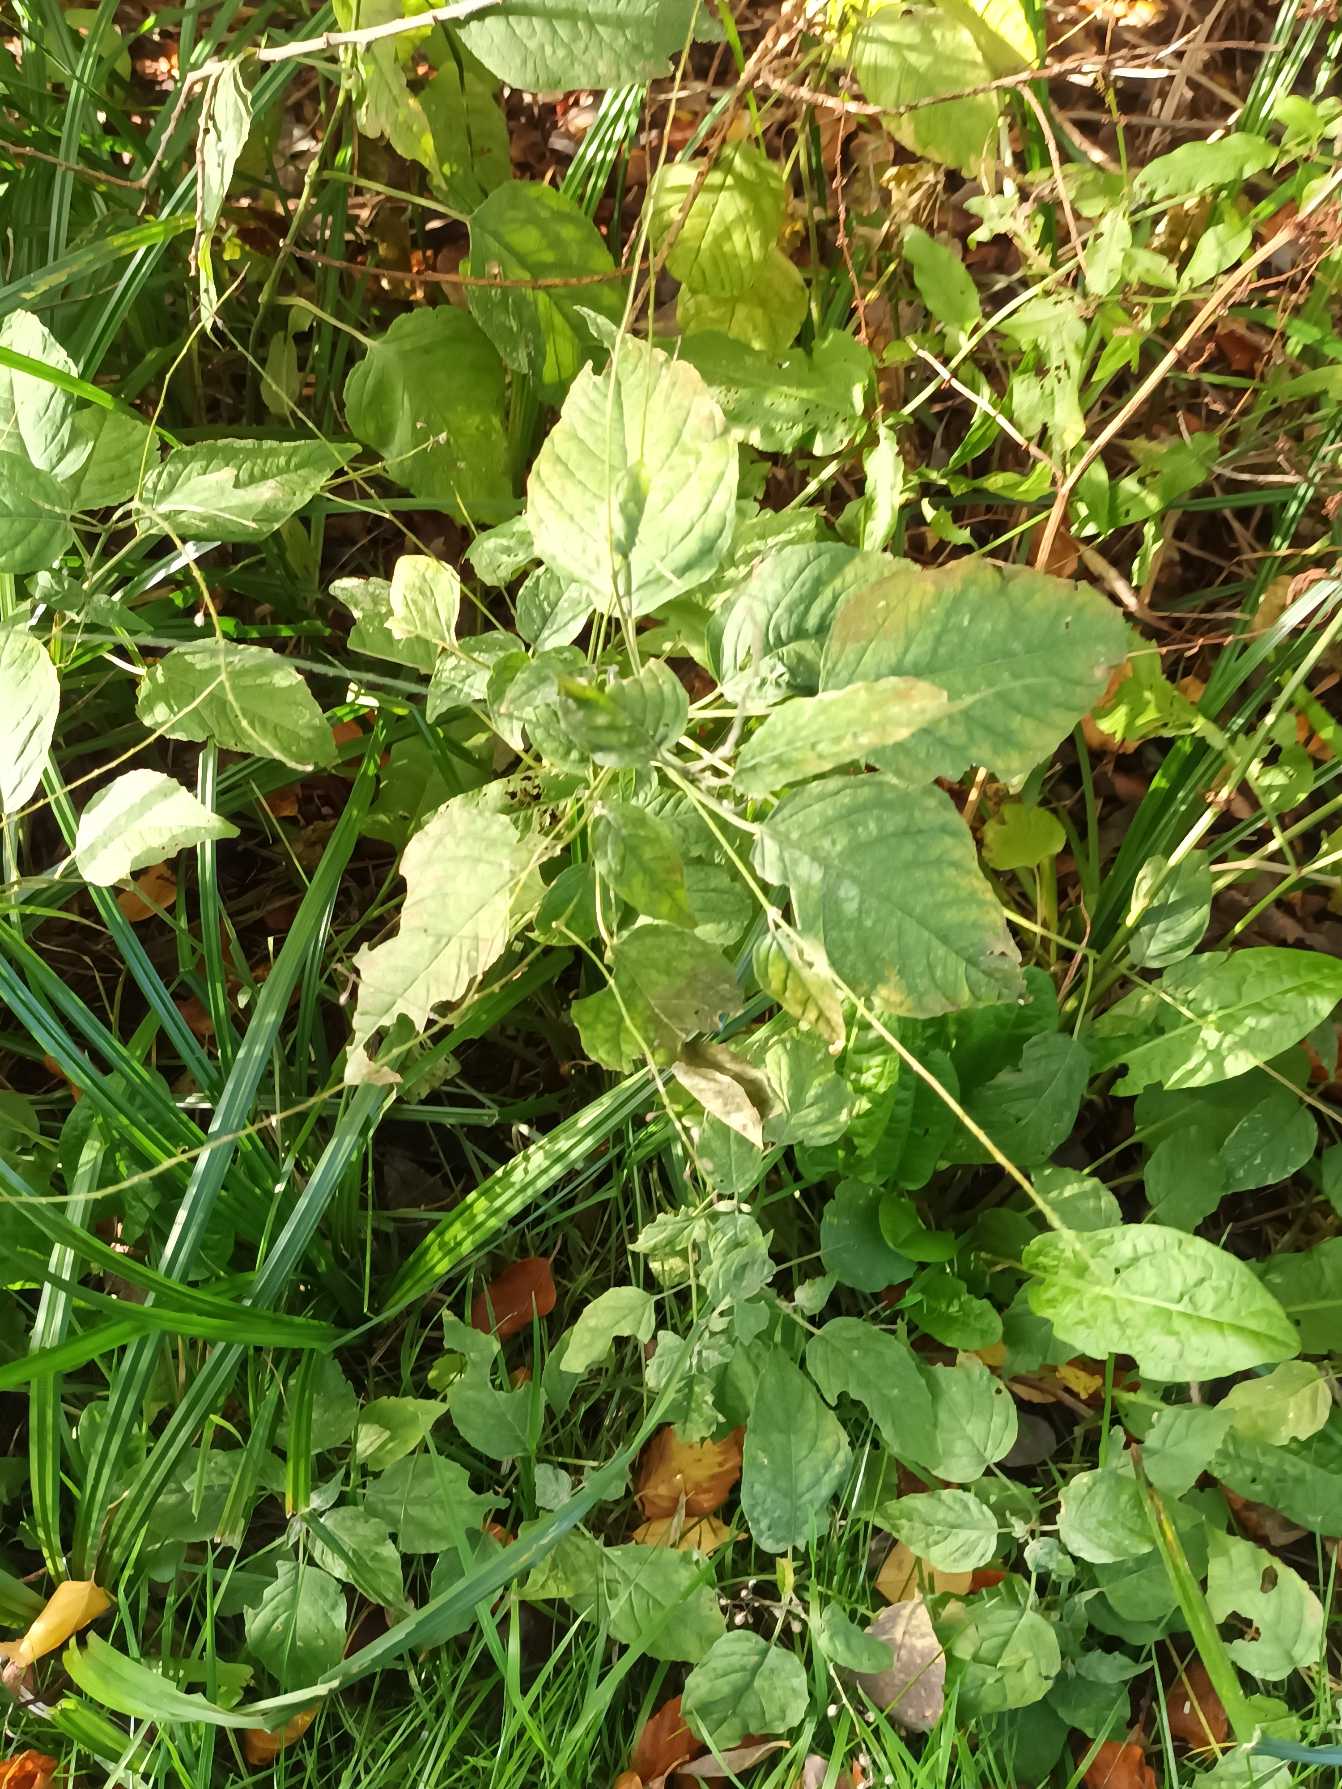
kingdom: Plantae
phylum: Tracheophyta
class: Magnoliopsida
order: Myrtales
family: Onagraceae
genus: Circaea
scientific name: Circaea lutetiana
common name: Dunet steffensurt
